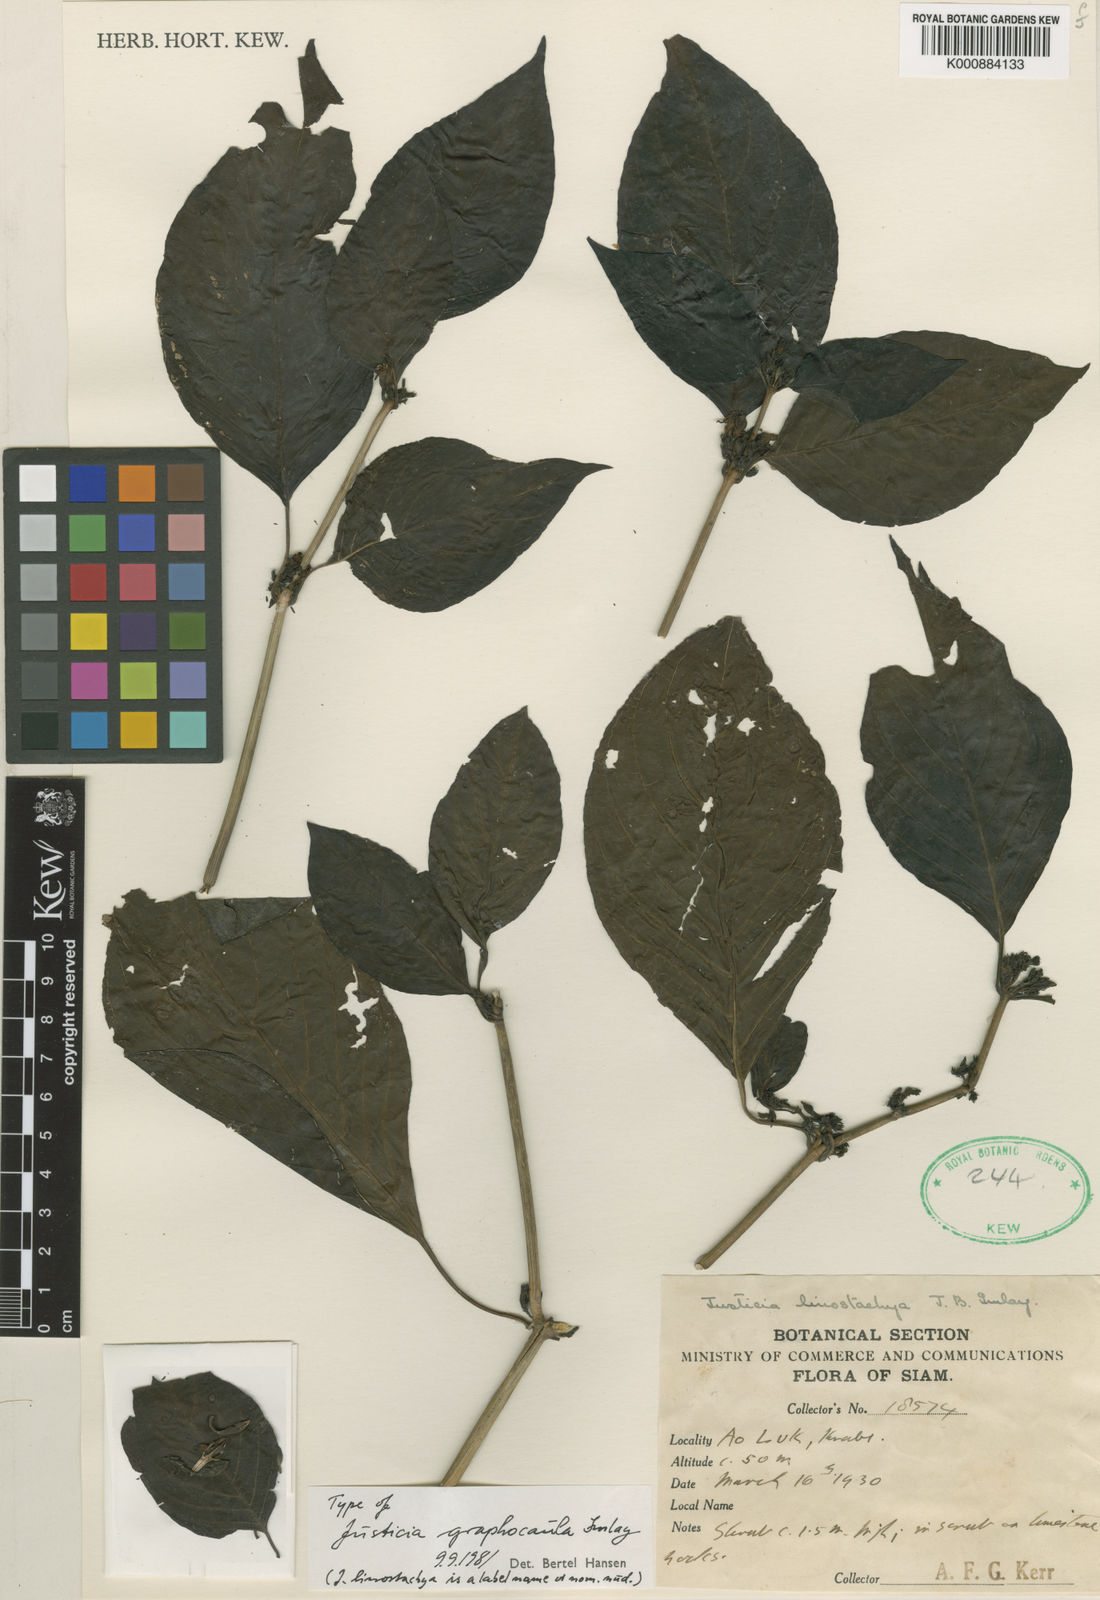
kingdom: Plantae
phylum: Tracheophyta
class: Magnoliopsida
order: Lamiales
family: Acanthaceae
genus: Justicia
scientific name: Justicia graphocaula
